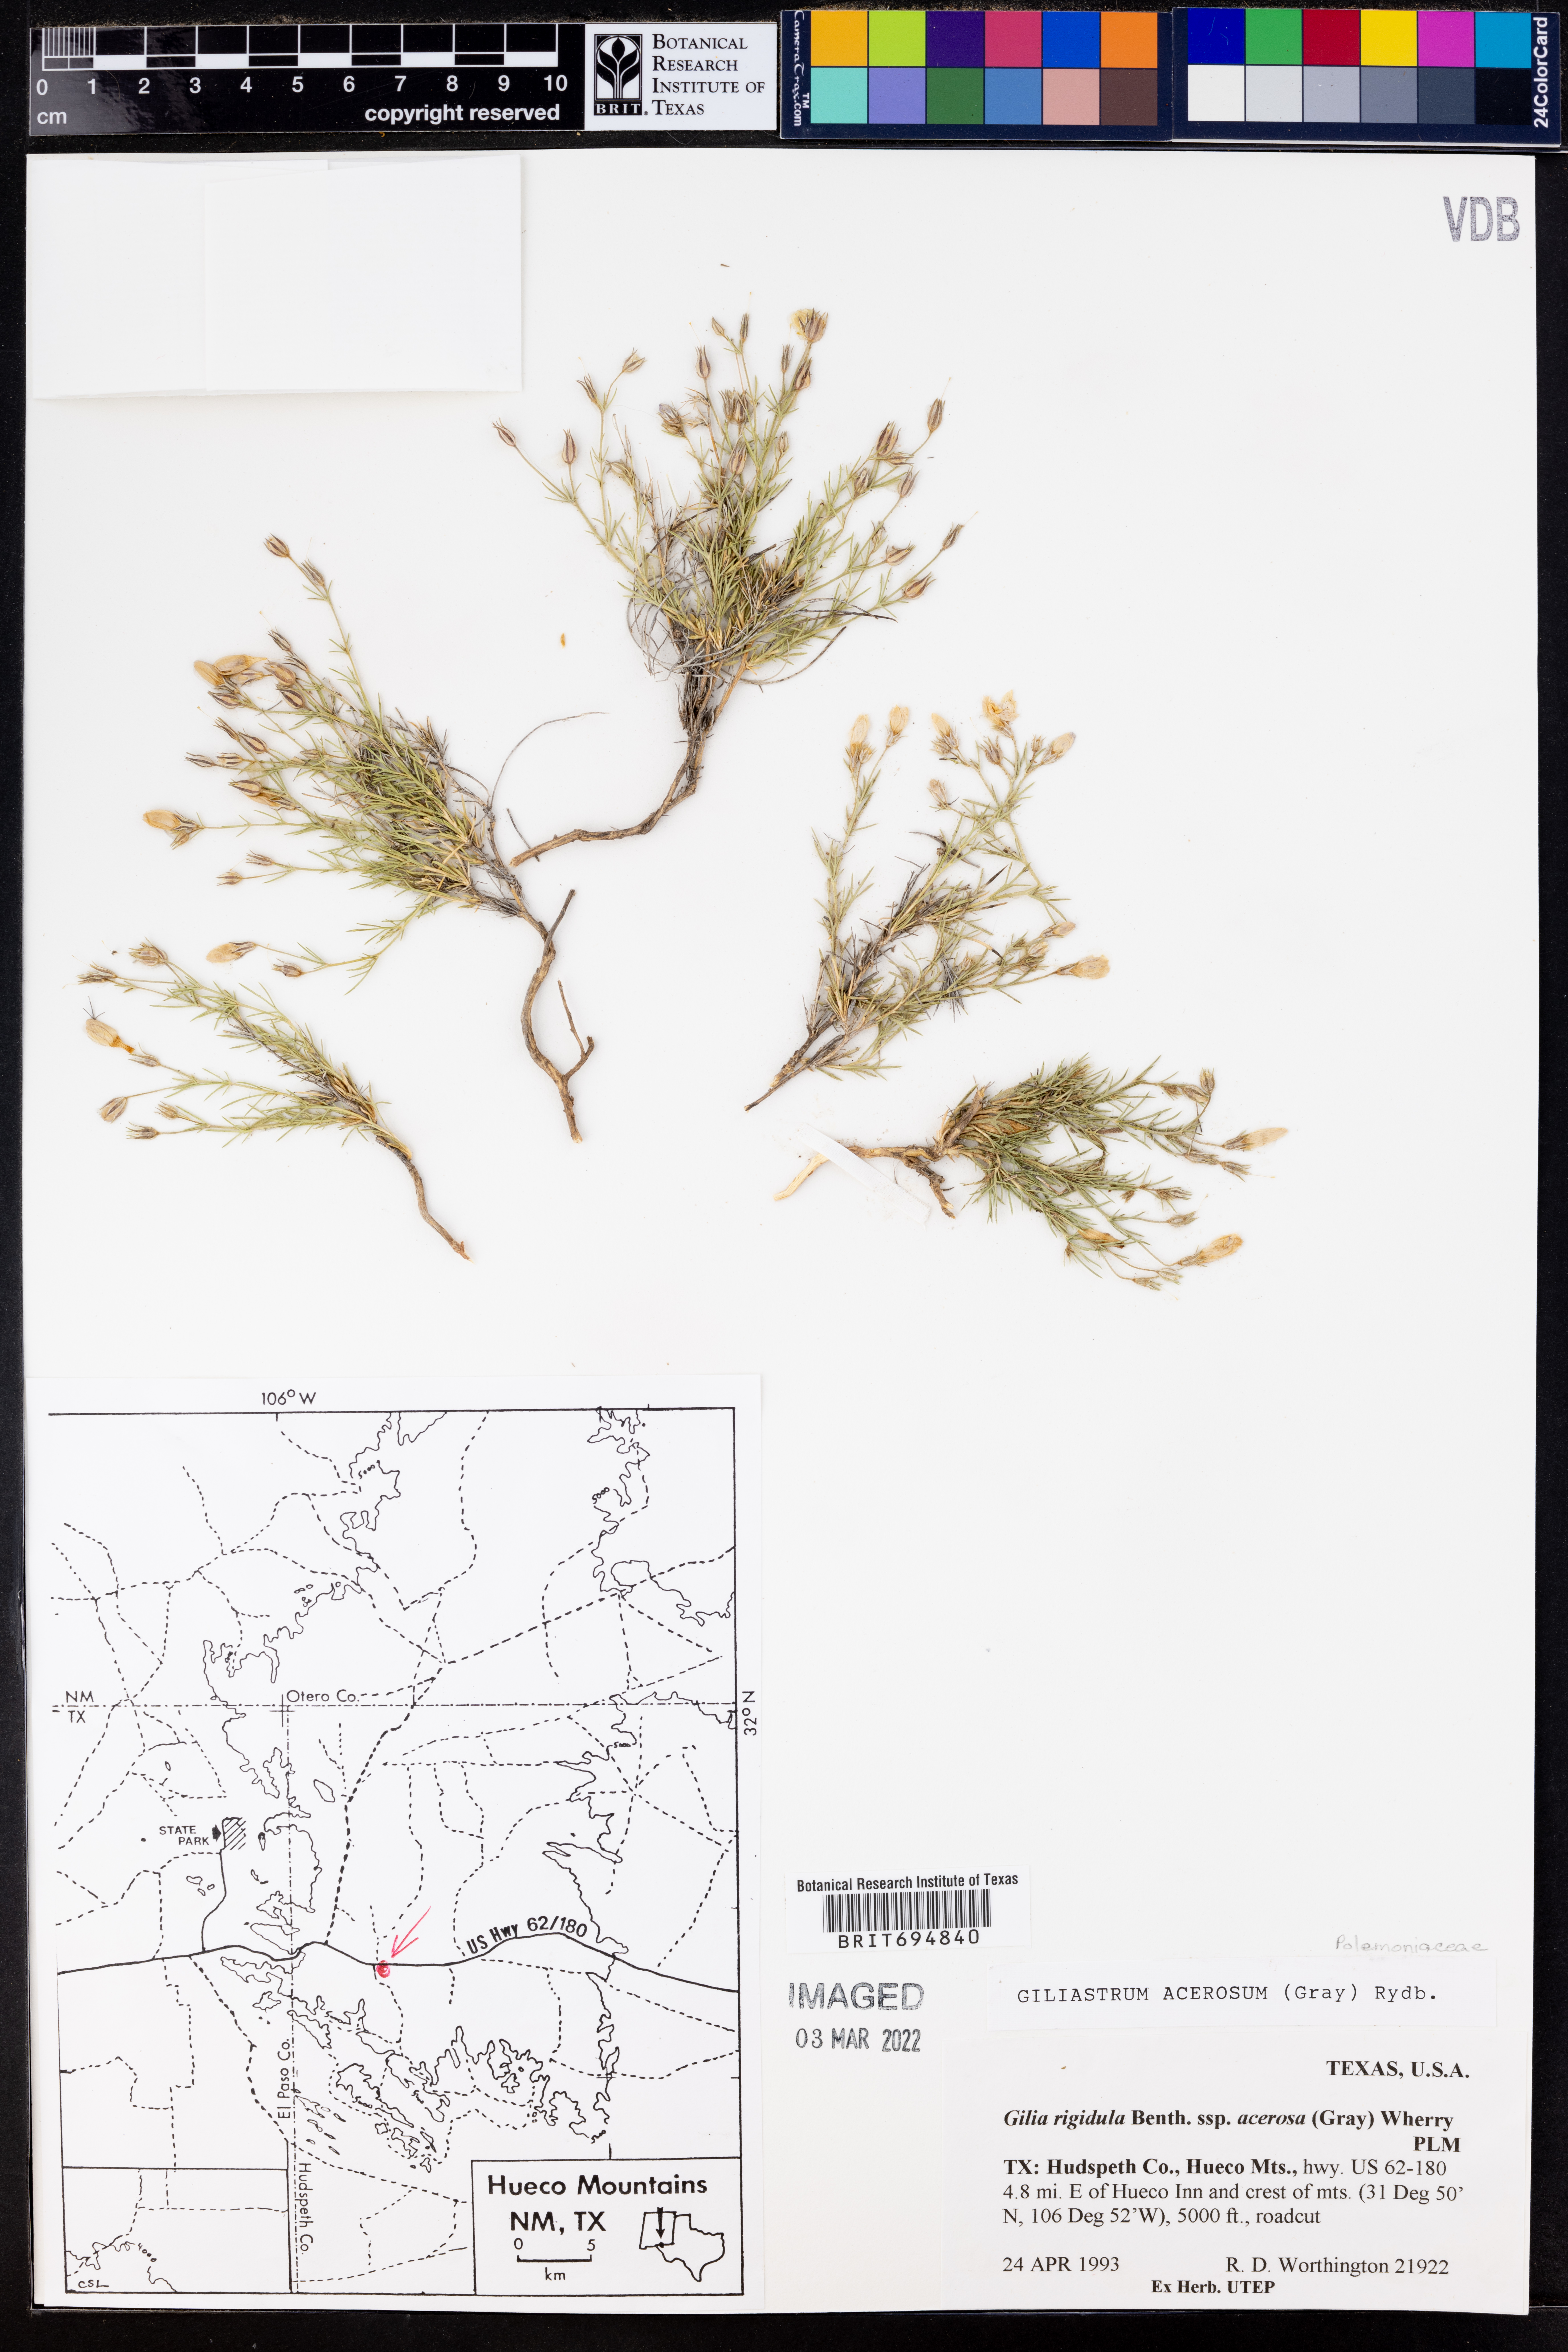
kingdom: Plantae
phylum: Tracheophyta
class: Magnoliopsida
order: Ericales
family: Polemoniaceae
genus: Giliastrum
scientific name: Giliastrum acerosum
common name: Bluebowls
